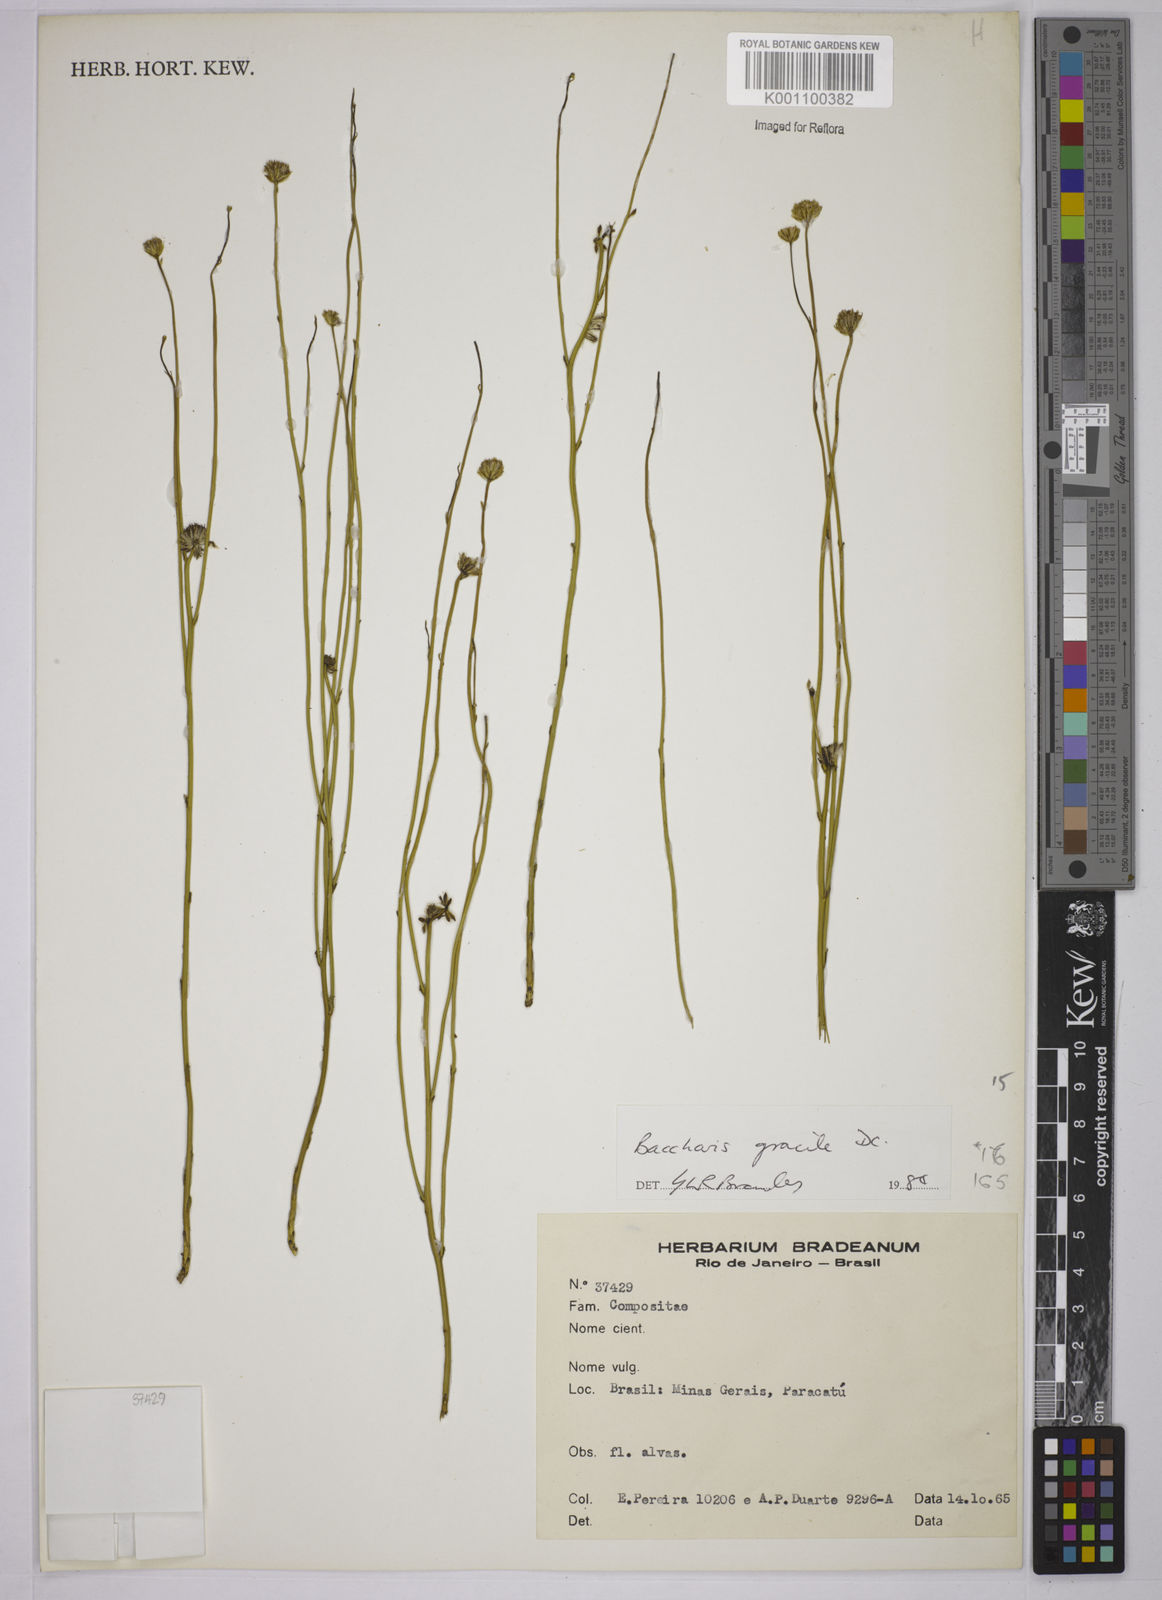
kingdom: Plantae
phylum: Tracheophyta
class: Magnoliopsida
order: Asterales
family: Asteraceae
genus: Baccharis
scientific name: Baccharis orbignyana
